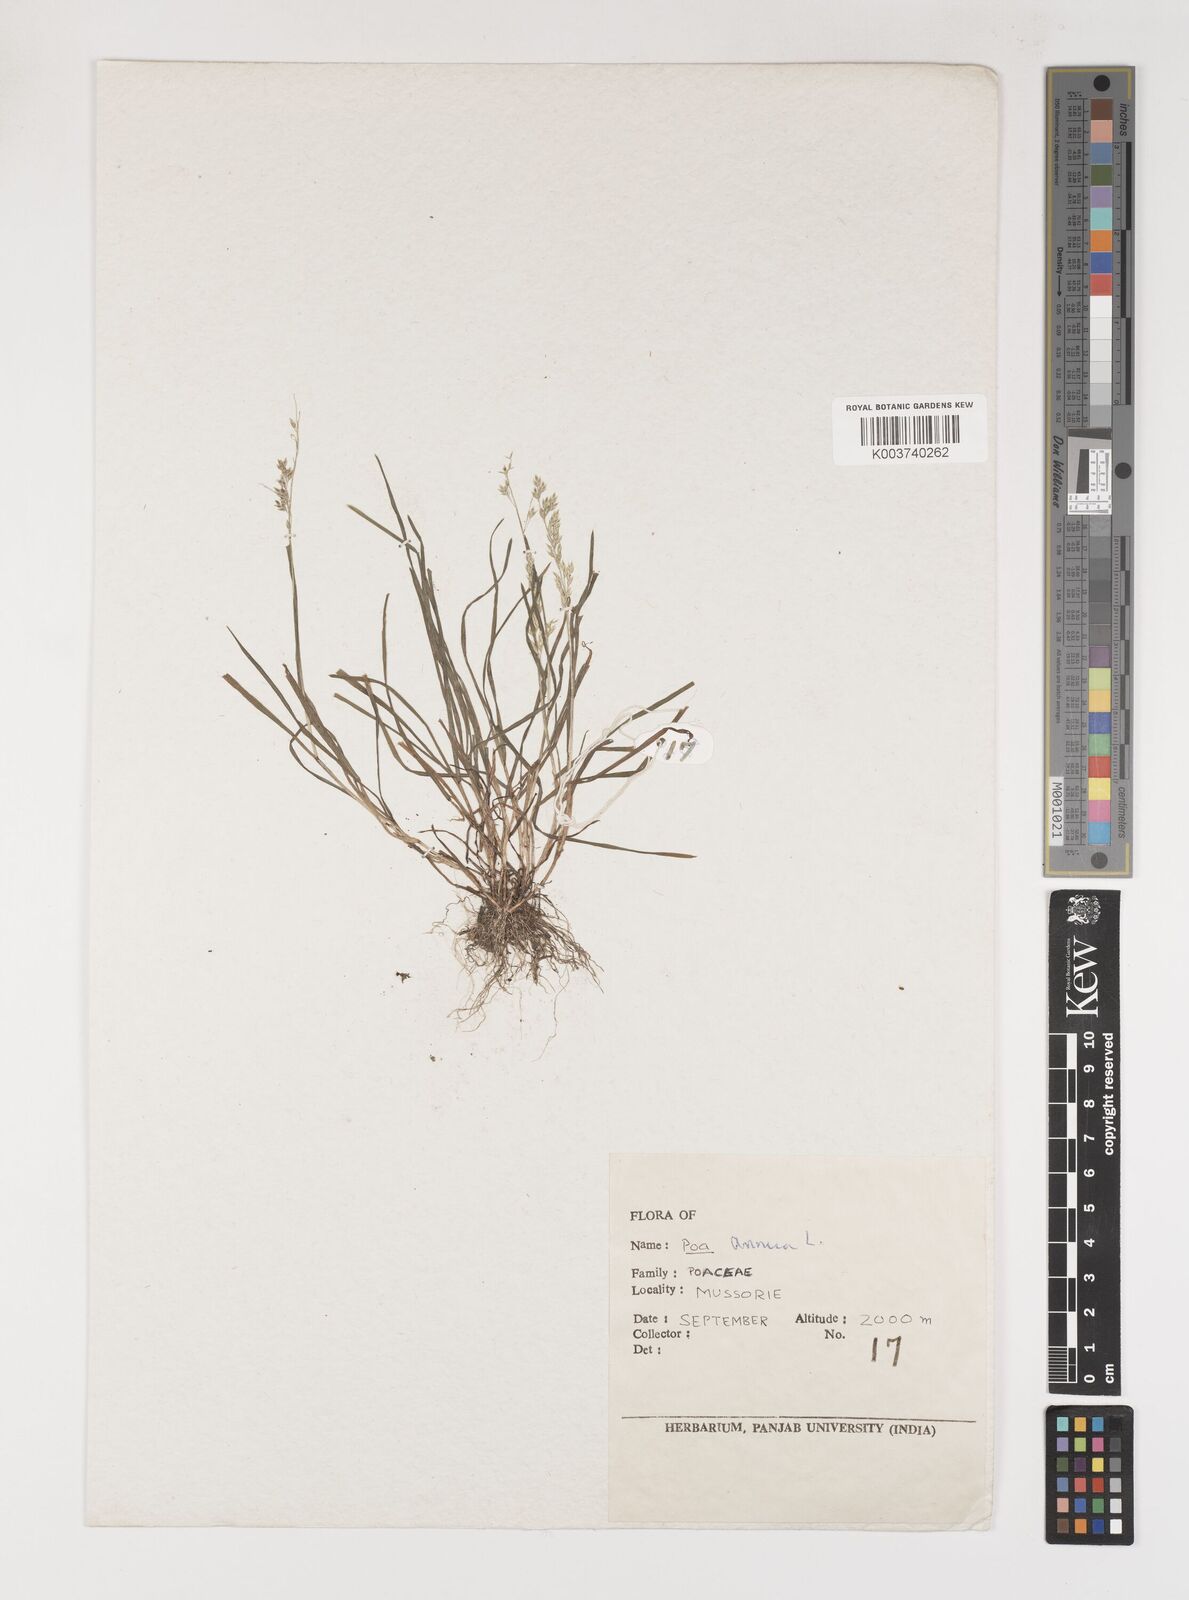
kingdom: Plantae
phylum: Tracheophyta
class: Liliopsida
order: Poales
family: Poaceae
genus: Poa
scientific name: Poa annua
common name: Annual bluegrass
